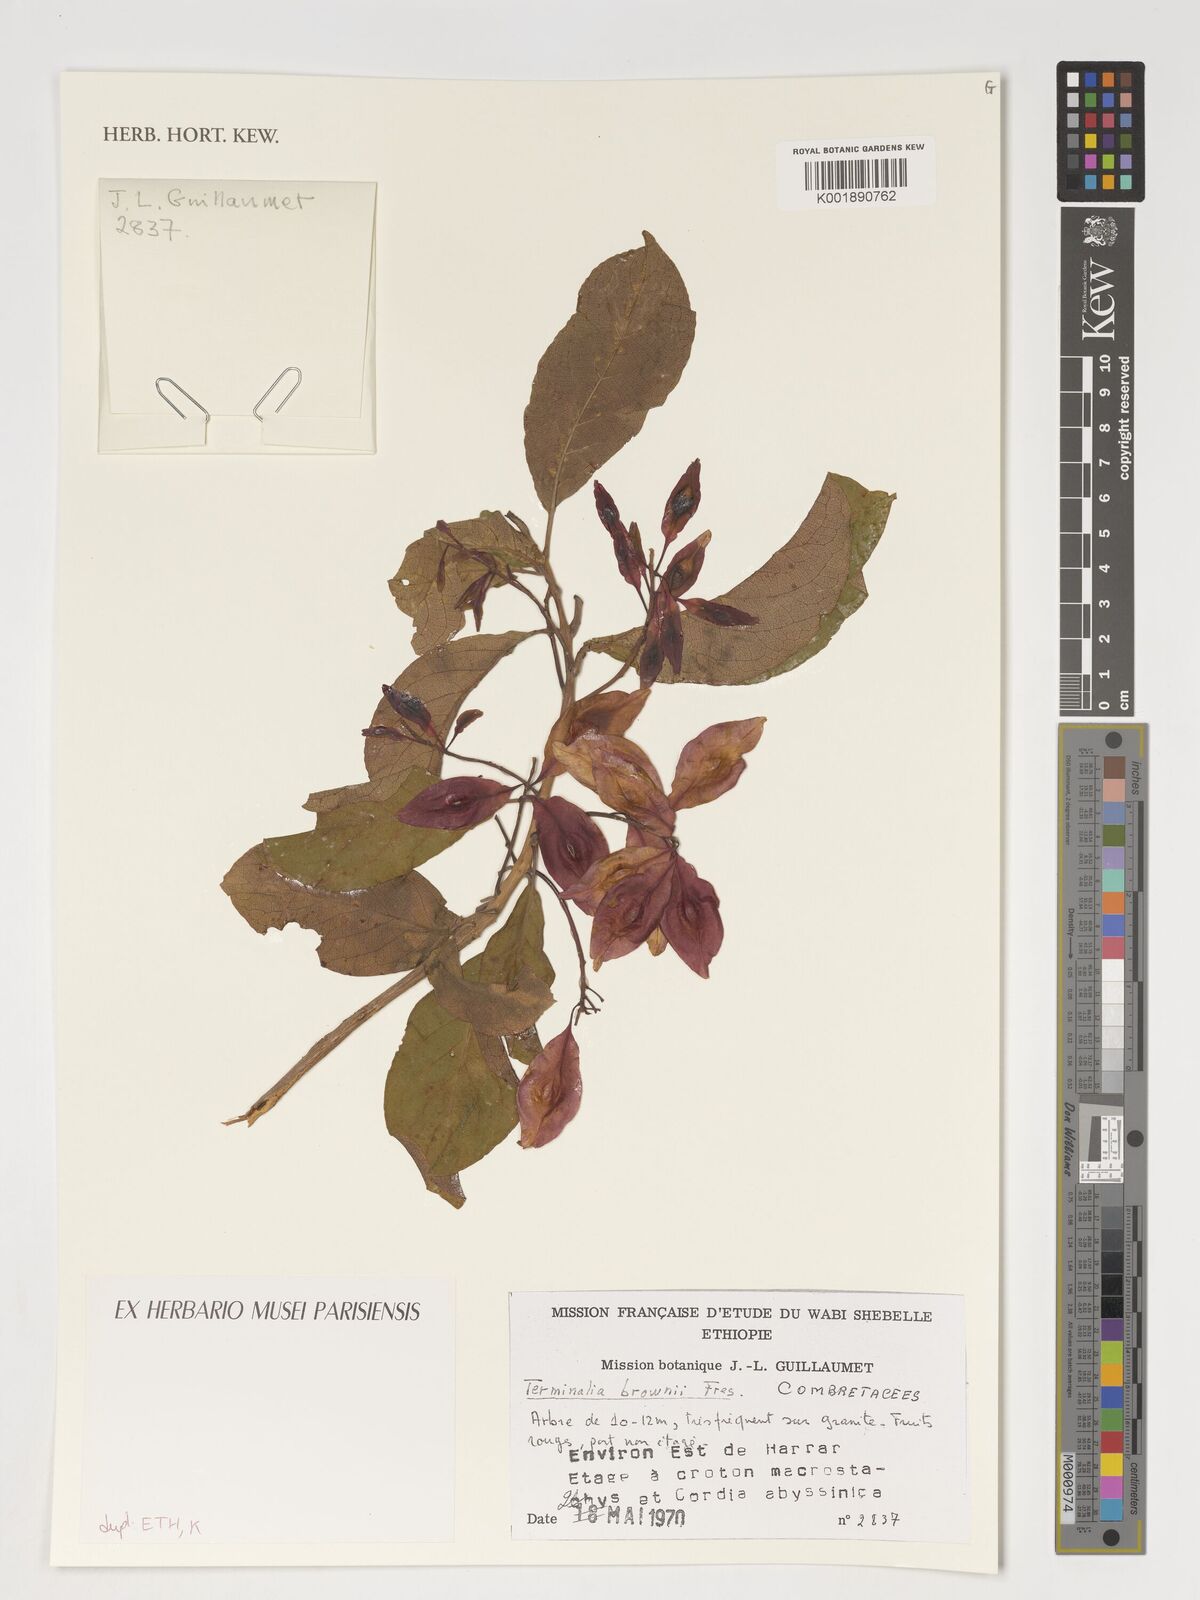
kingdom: Plantae
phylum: Tracheophyta
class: Magnoliopsida
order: Myrtales
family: Combretaceae
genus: Terminalia
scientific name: Terminalia brownii
